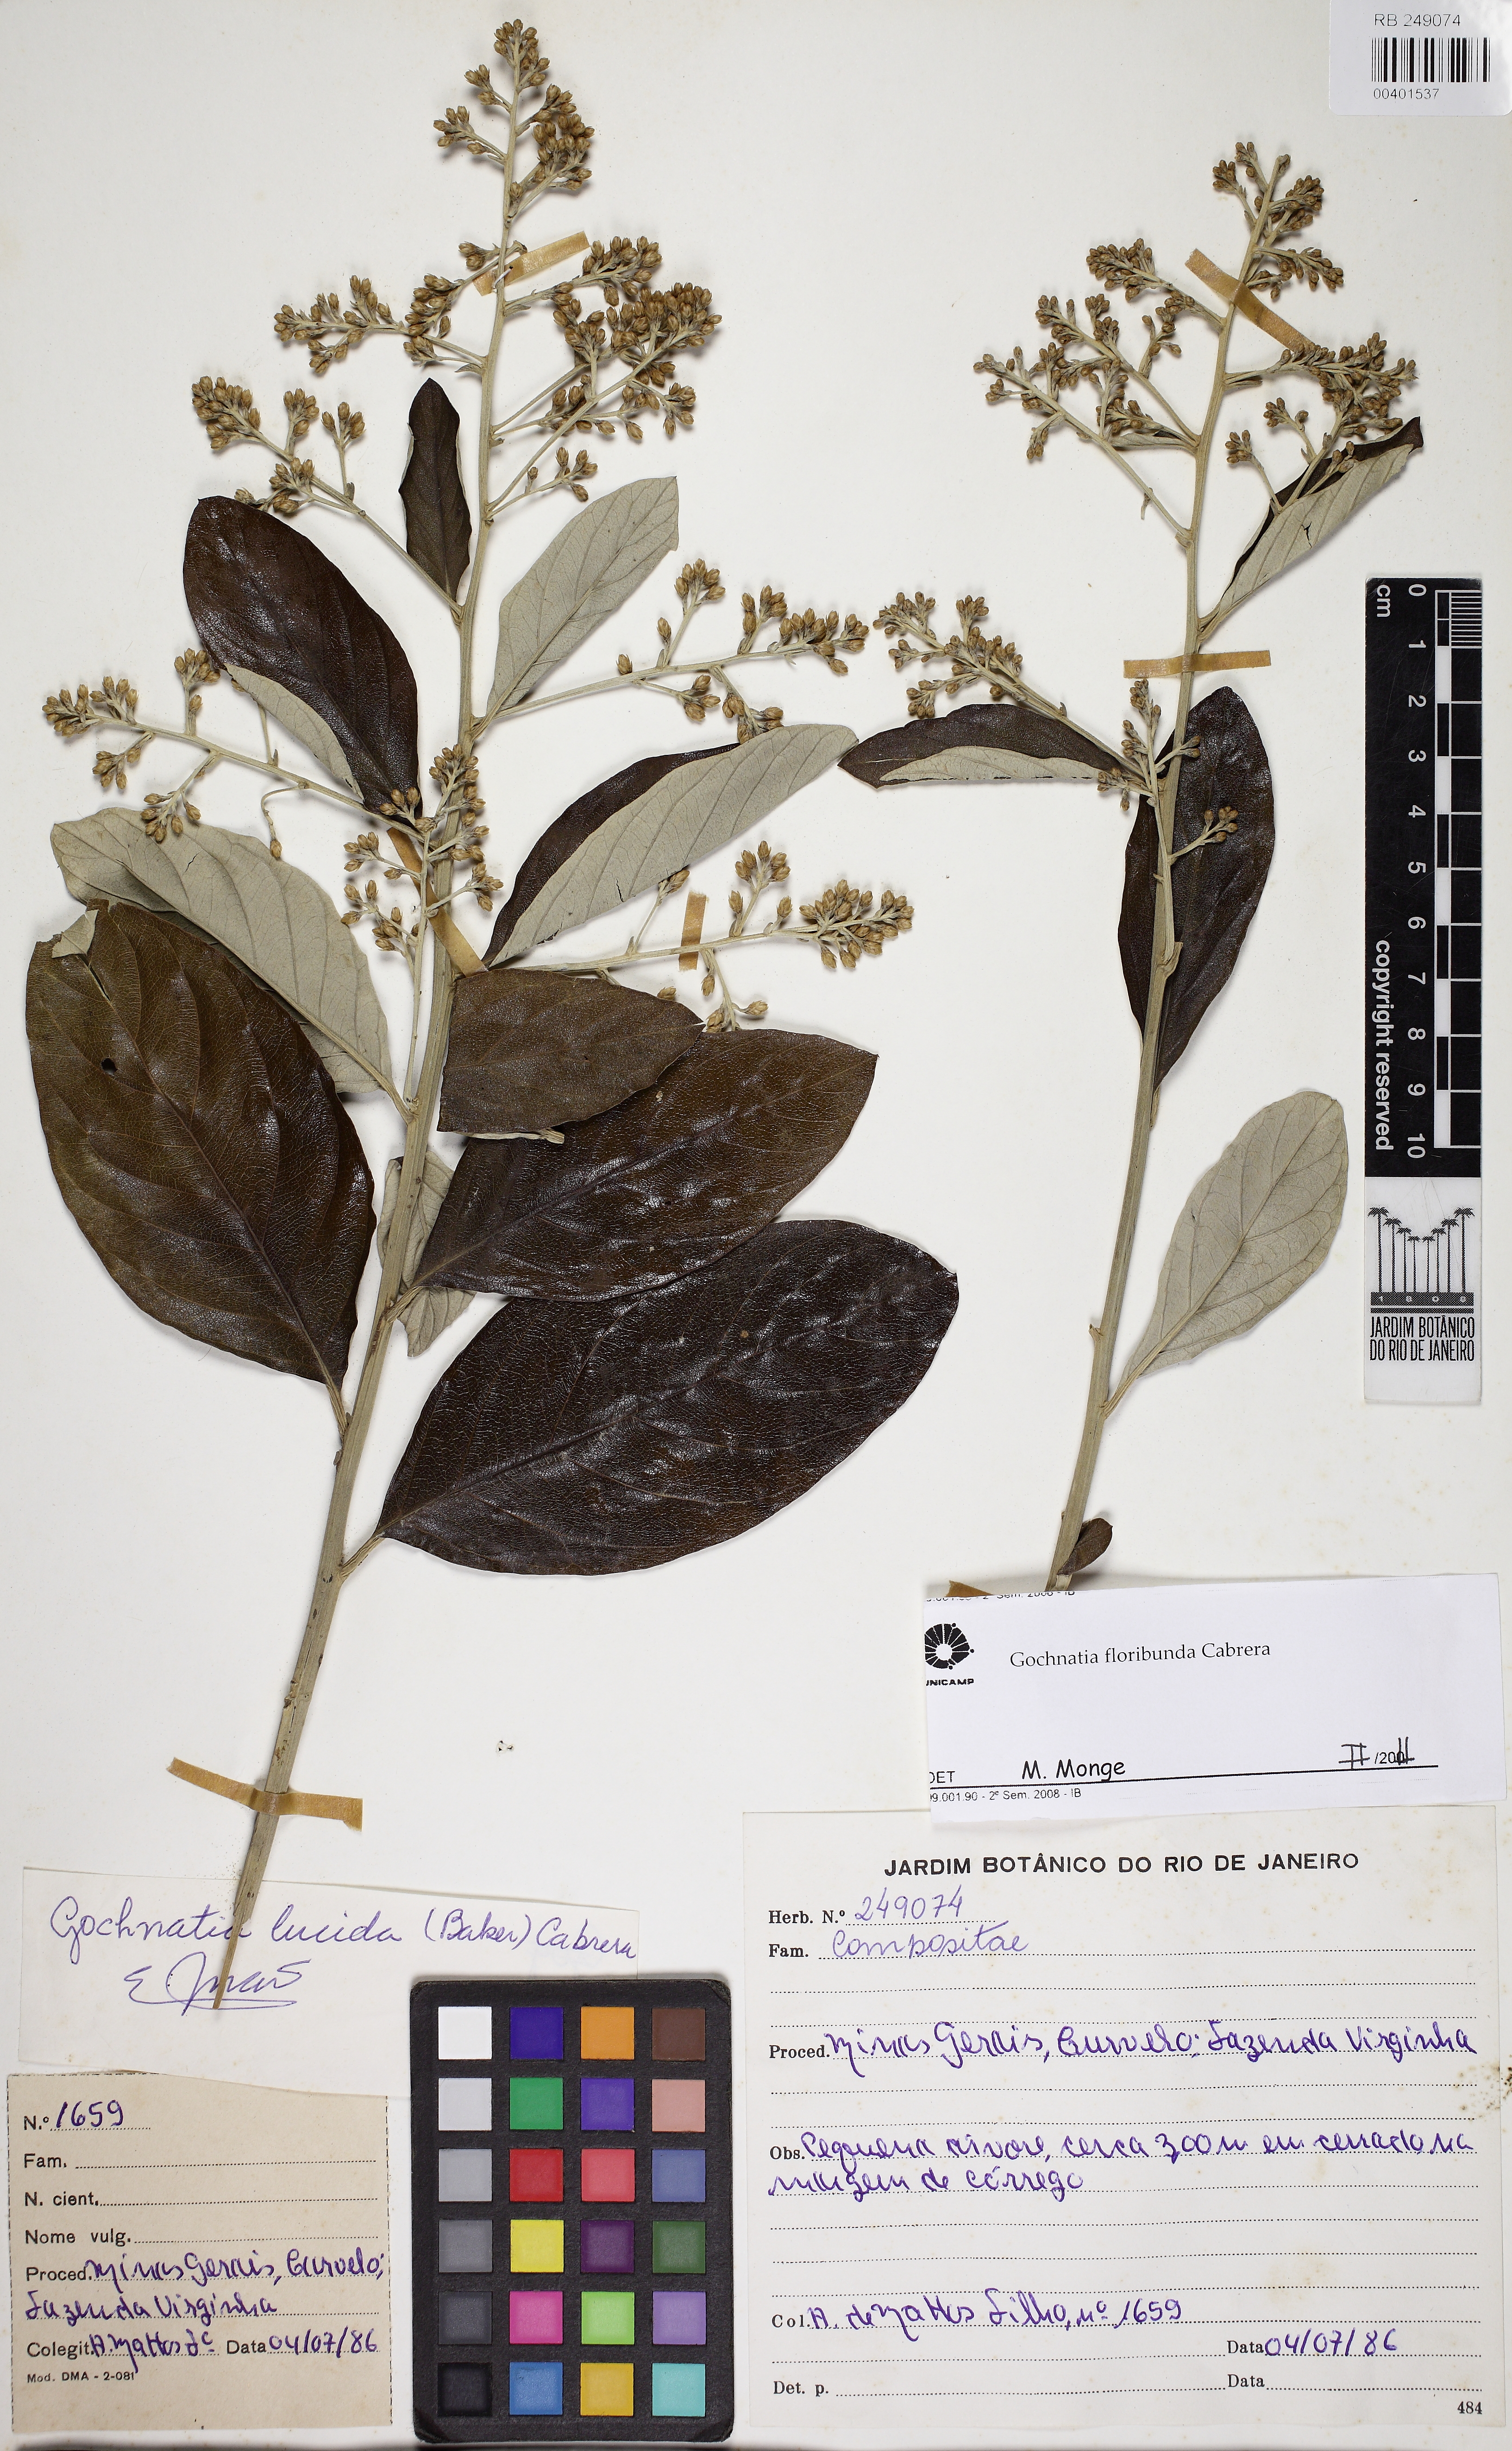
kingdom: Plantae
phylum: Tracheophyta
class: Magnoliopsida
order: Asterales
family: Asteraceae
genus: Moquiniastrum
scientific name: Moquiniastrum floribundum
